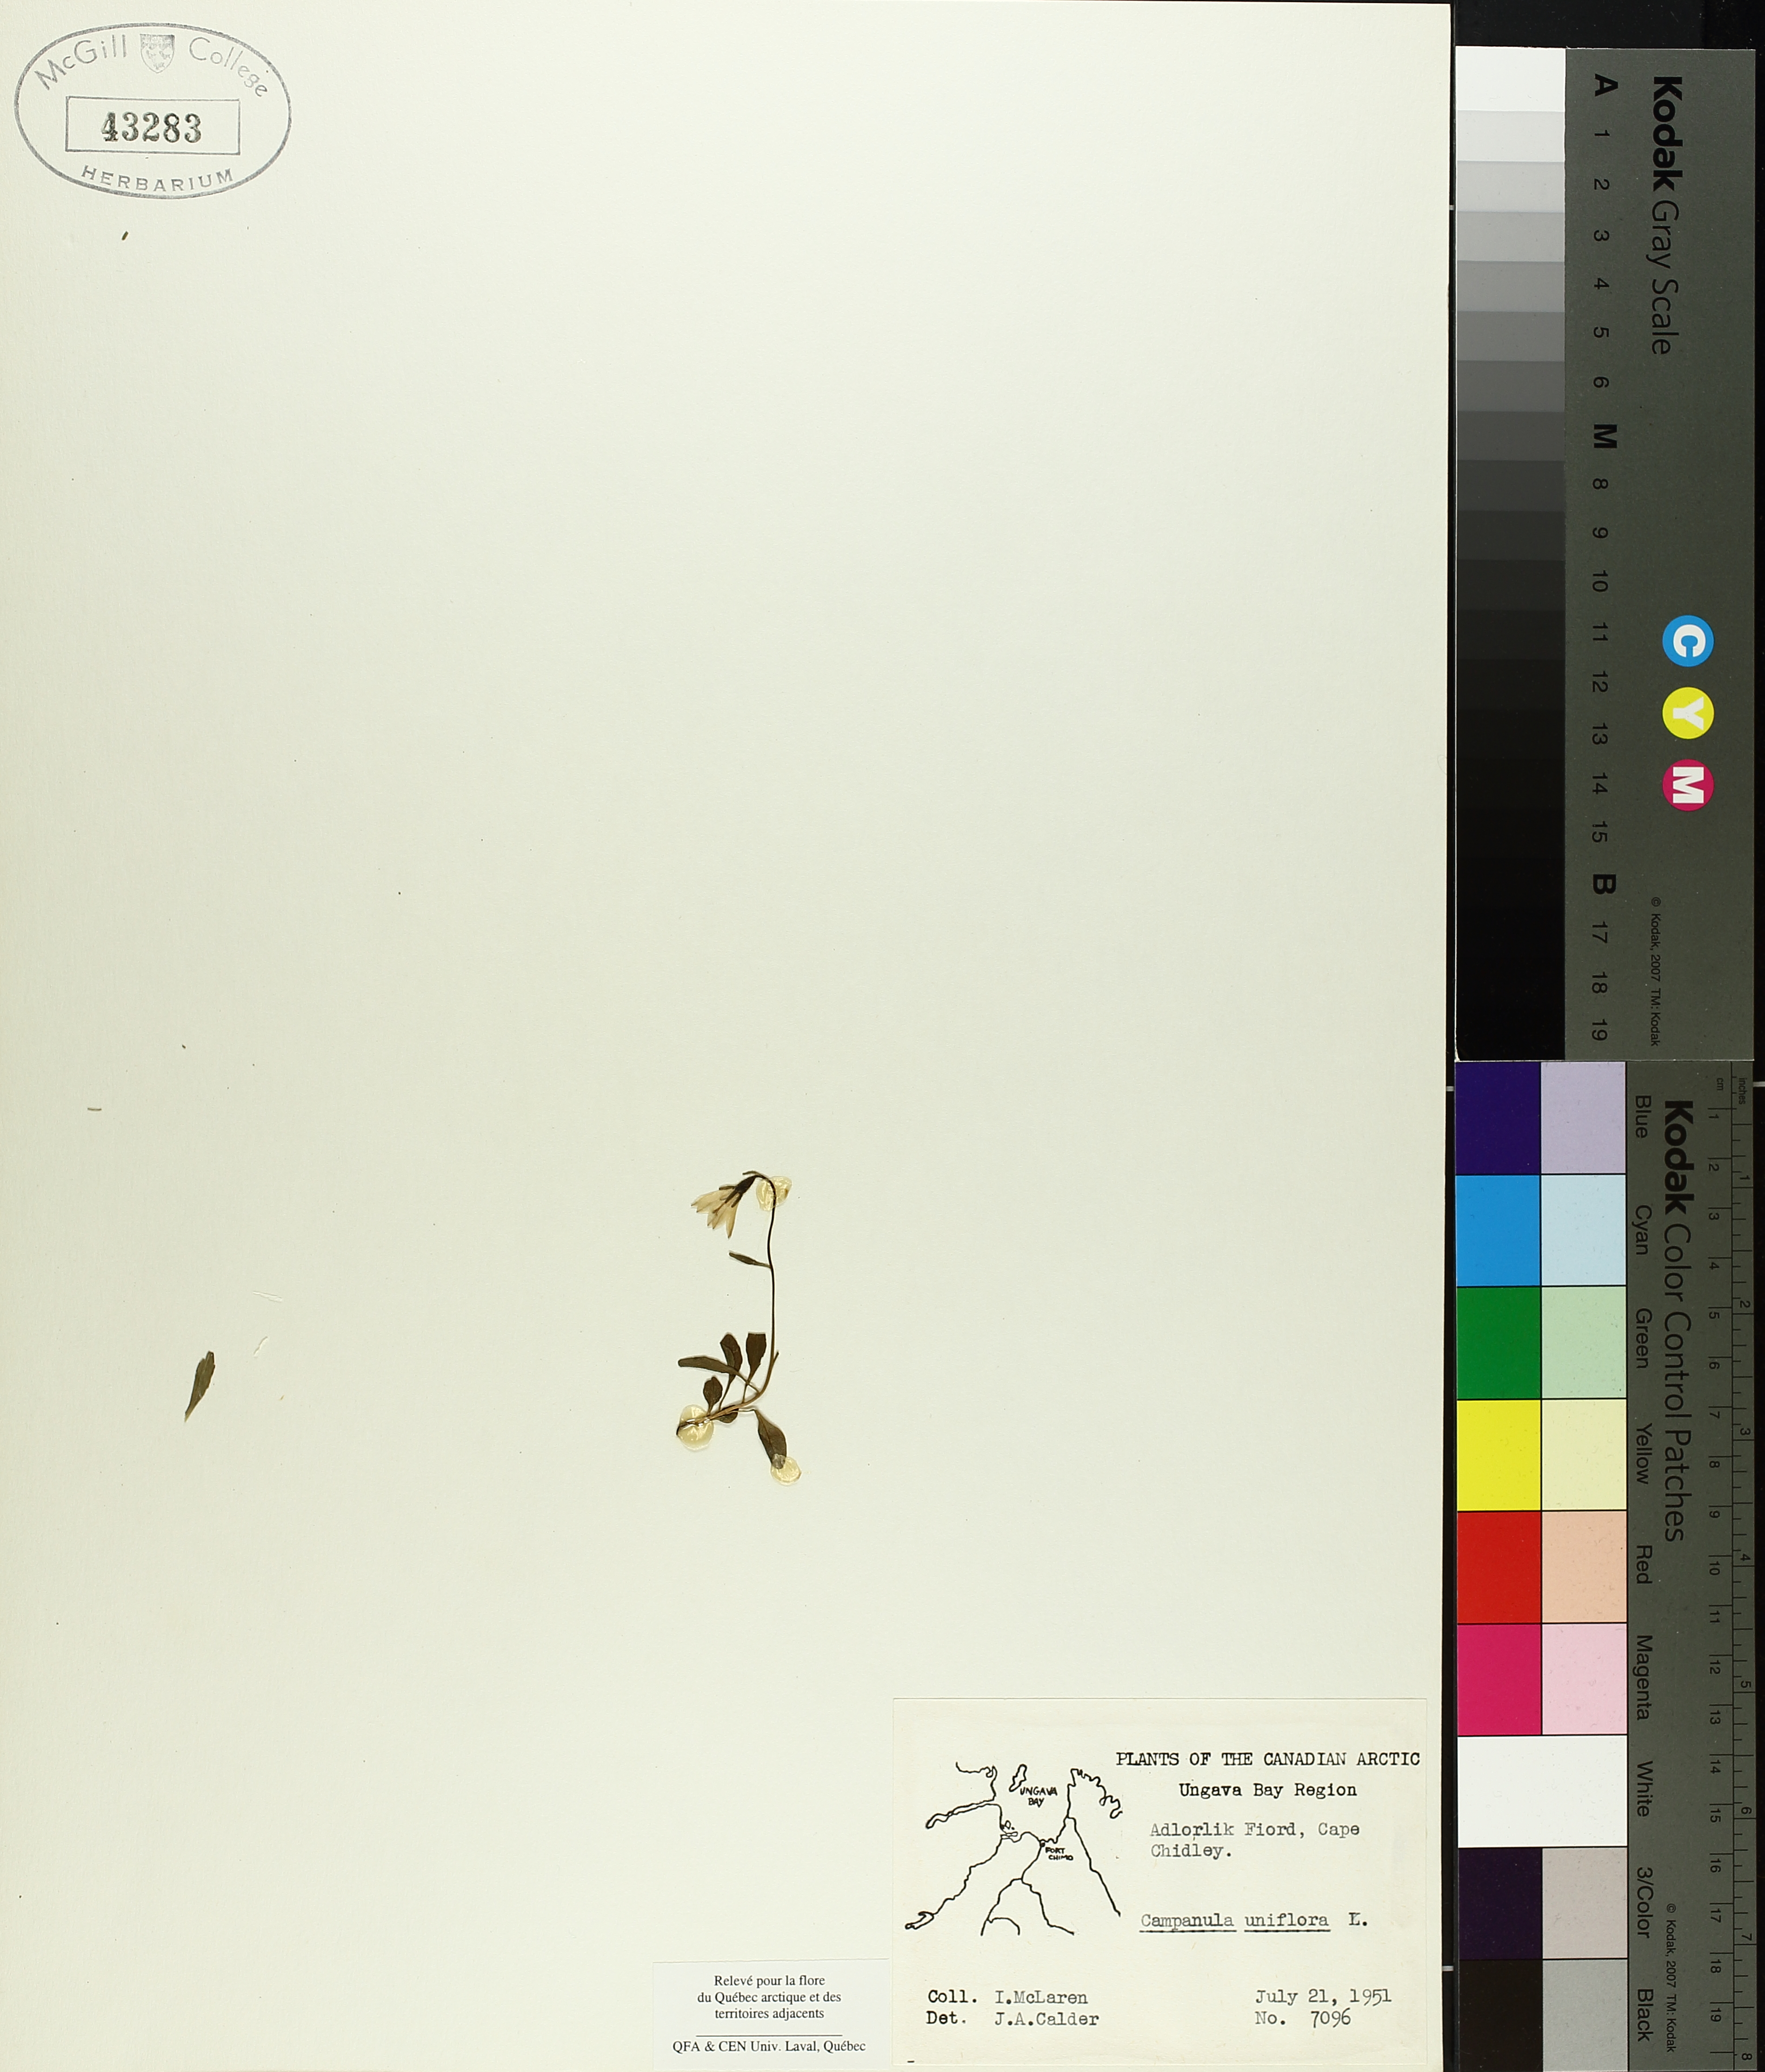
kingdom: Plantae
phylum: Tracheophyta
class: Magnoliopsida
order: Asterales
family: Campanulaceae
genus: Melanocalyx
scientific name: Melanocalyx uniflora
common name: Alpine harebell
